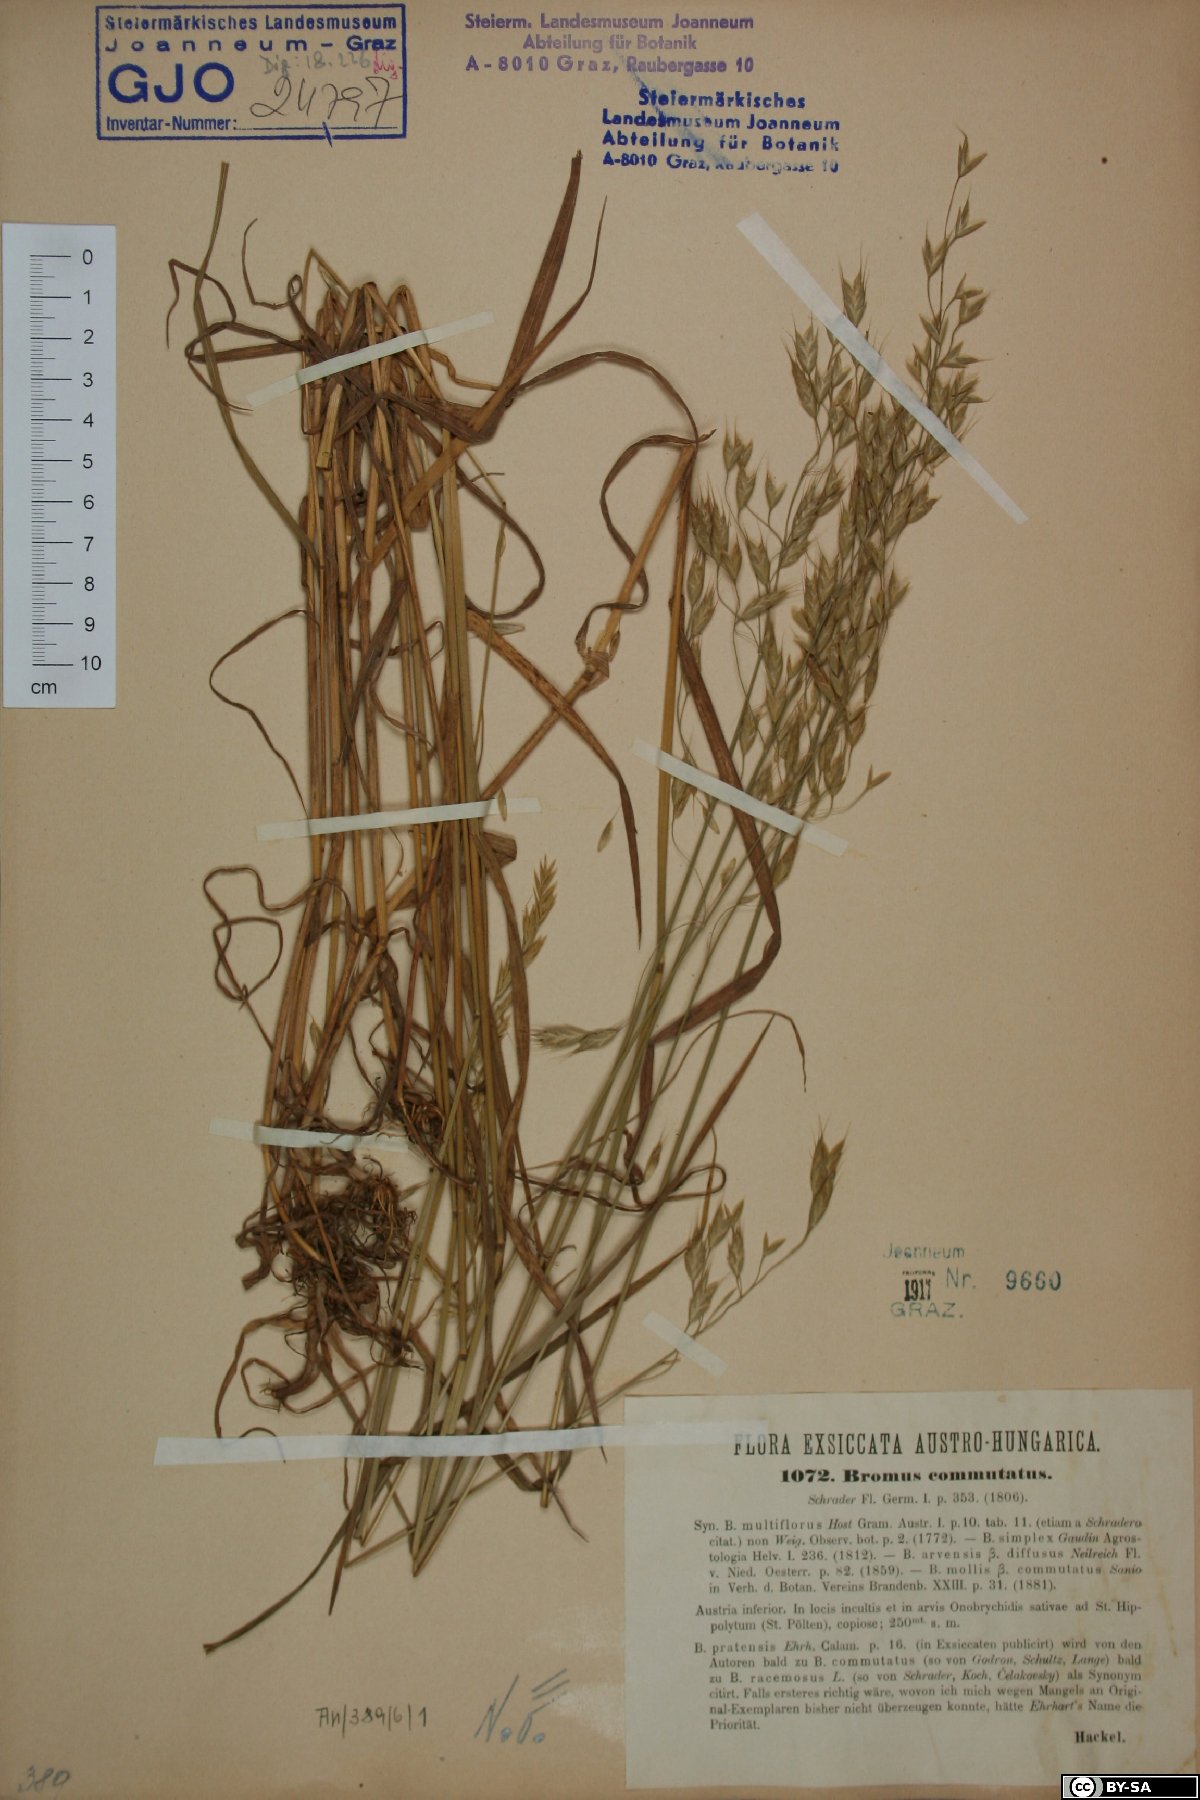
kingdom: Plantae
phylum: Tracheophyta
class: Liliopsida
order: Poales
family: Poaceae
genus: Bromus
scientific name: Bromus commutatus
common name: Meadow brome
